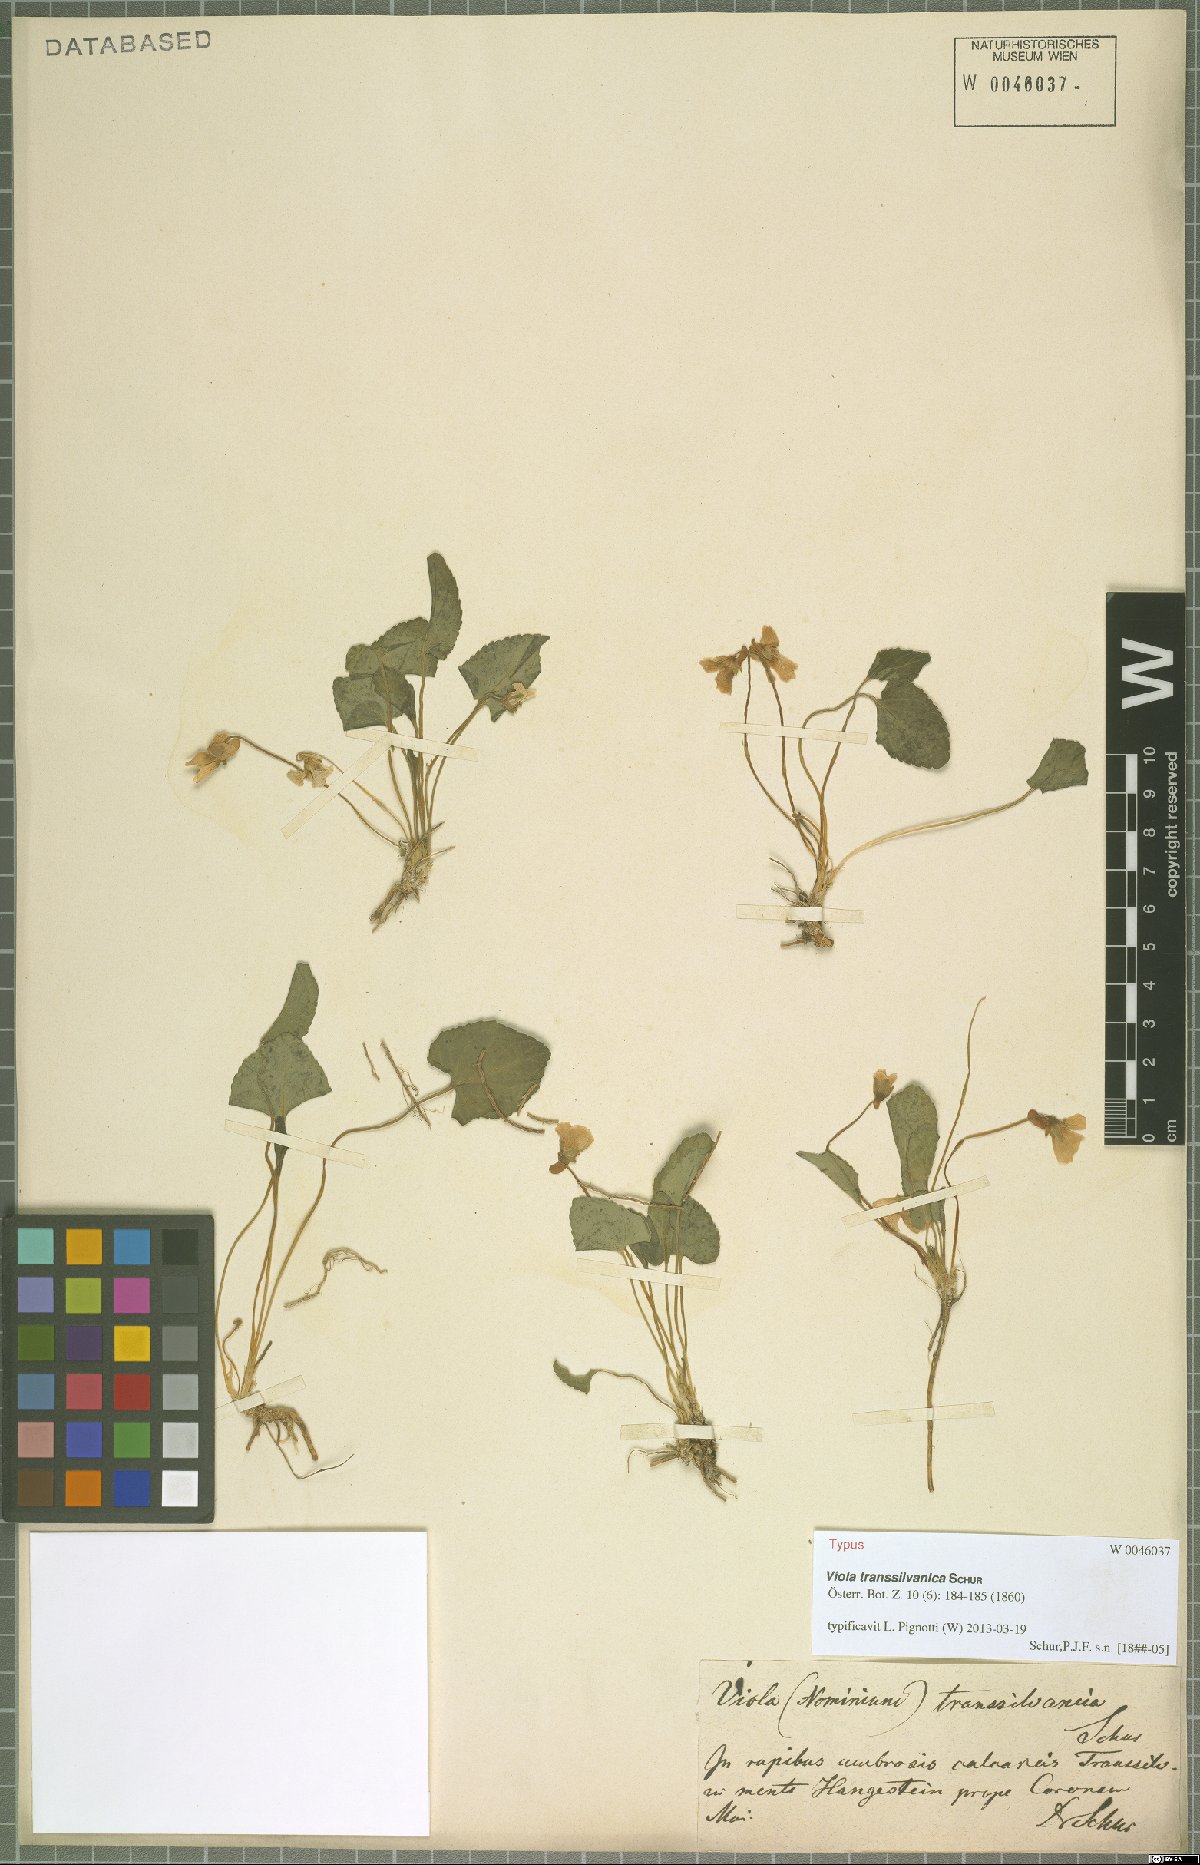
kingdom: Plantae
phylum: Tracheophyta
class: Magnoliopsida
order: Malpighiales
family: Violaceae
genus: Viola
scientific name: Viola jooi
